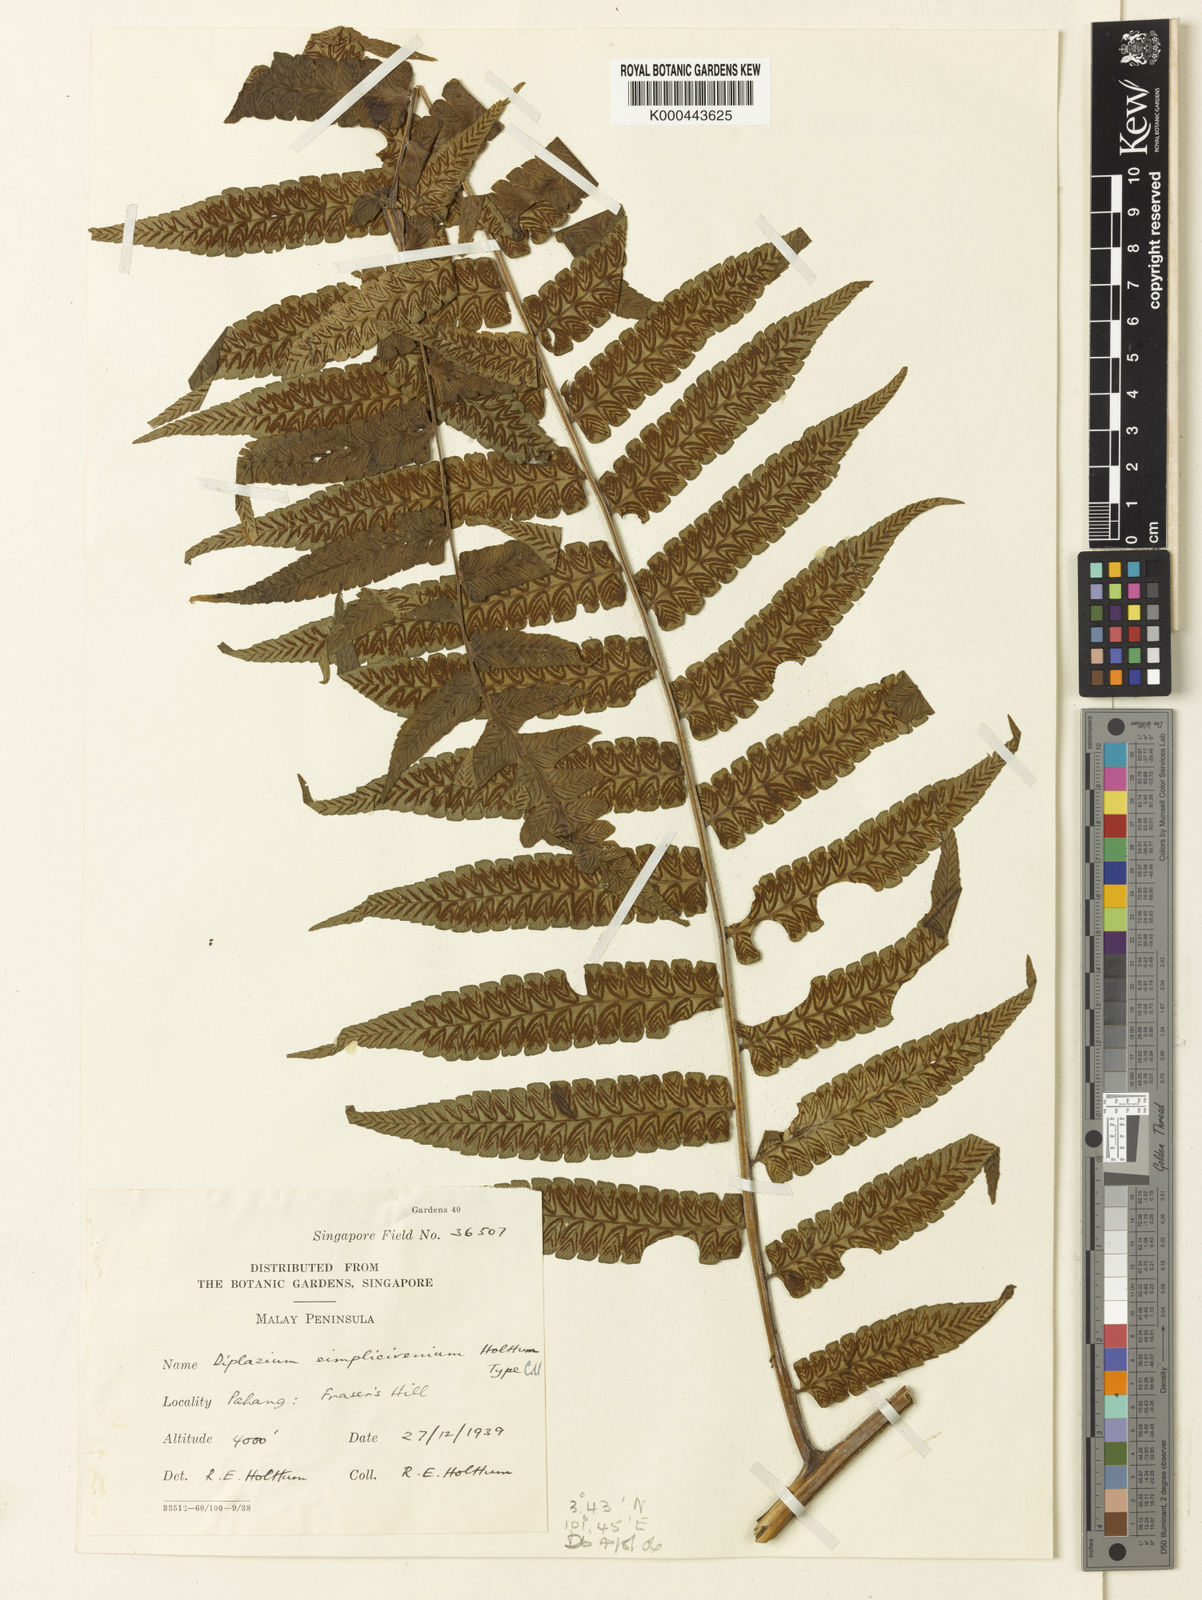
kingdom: Plantae
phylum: Tracheophyta
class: Polypodiopsida
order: Polypodiales
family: Athyriaceae
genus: Diplazium
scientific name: Diplazium simplicivenium
